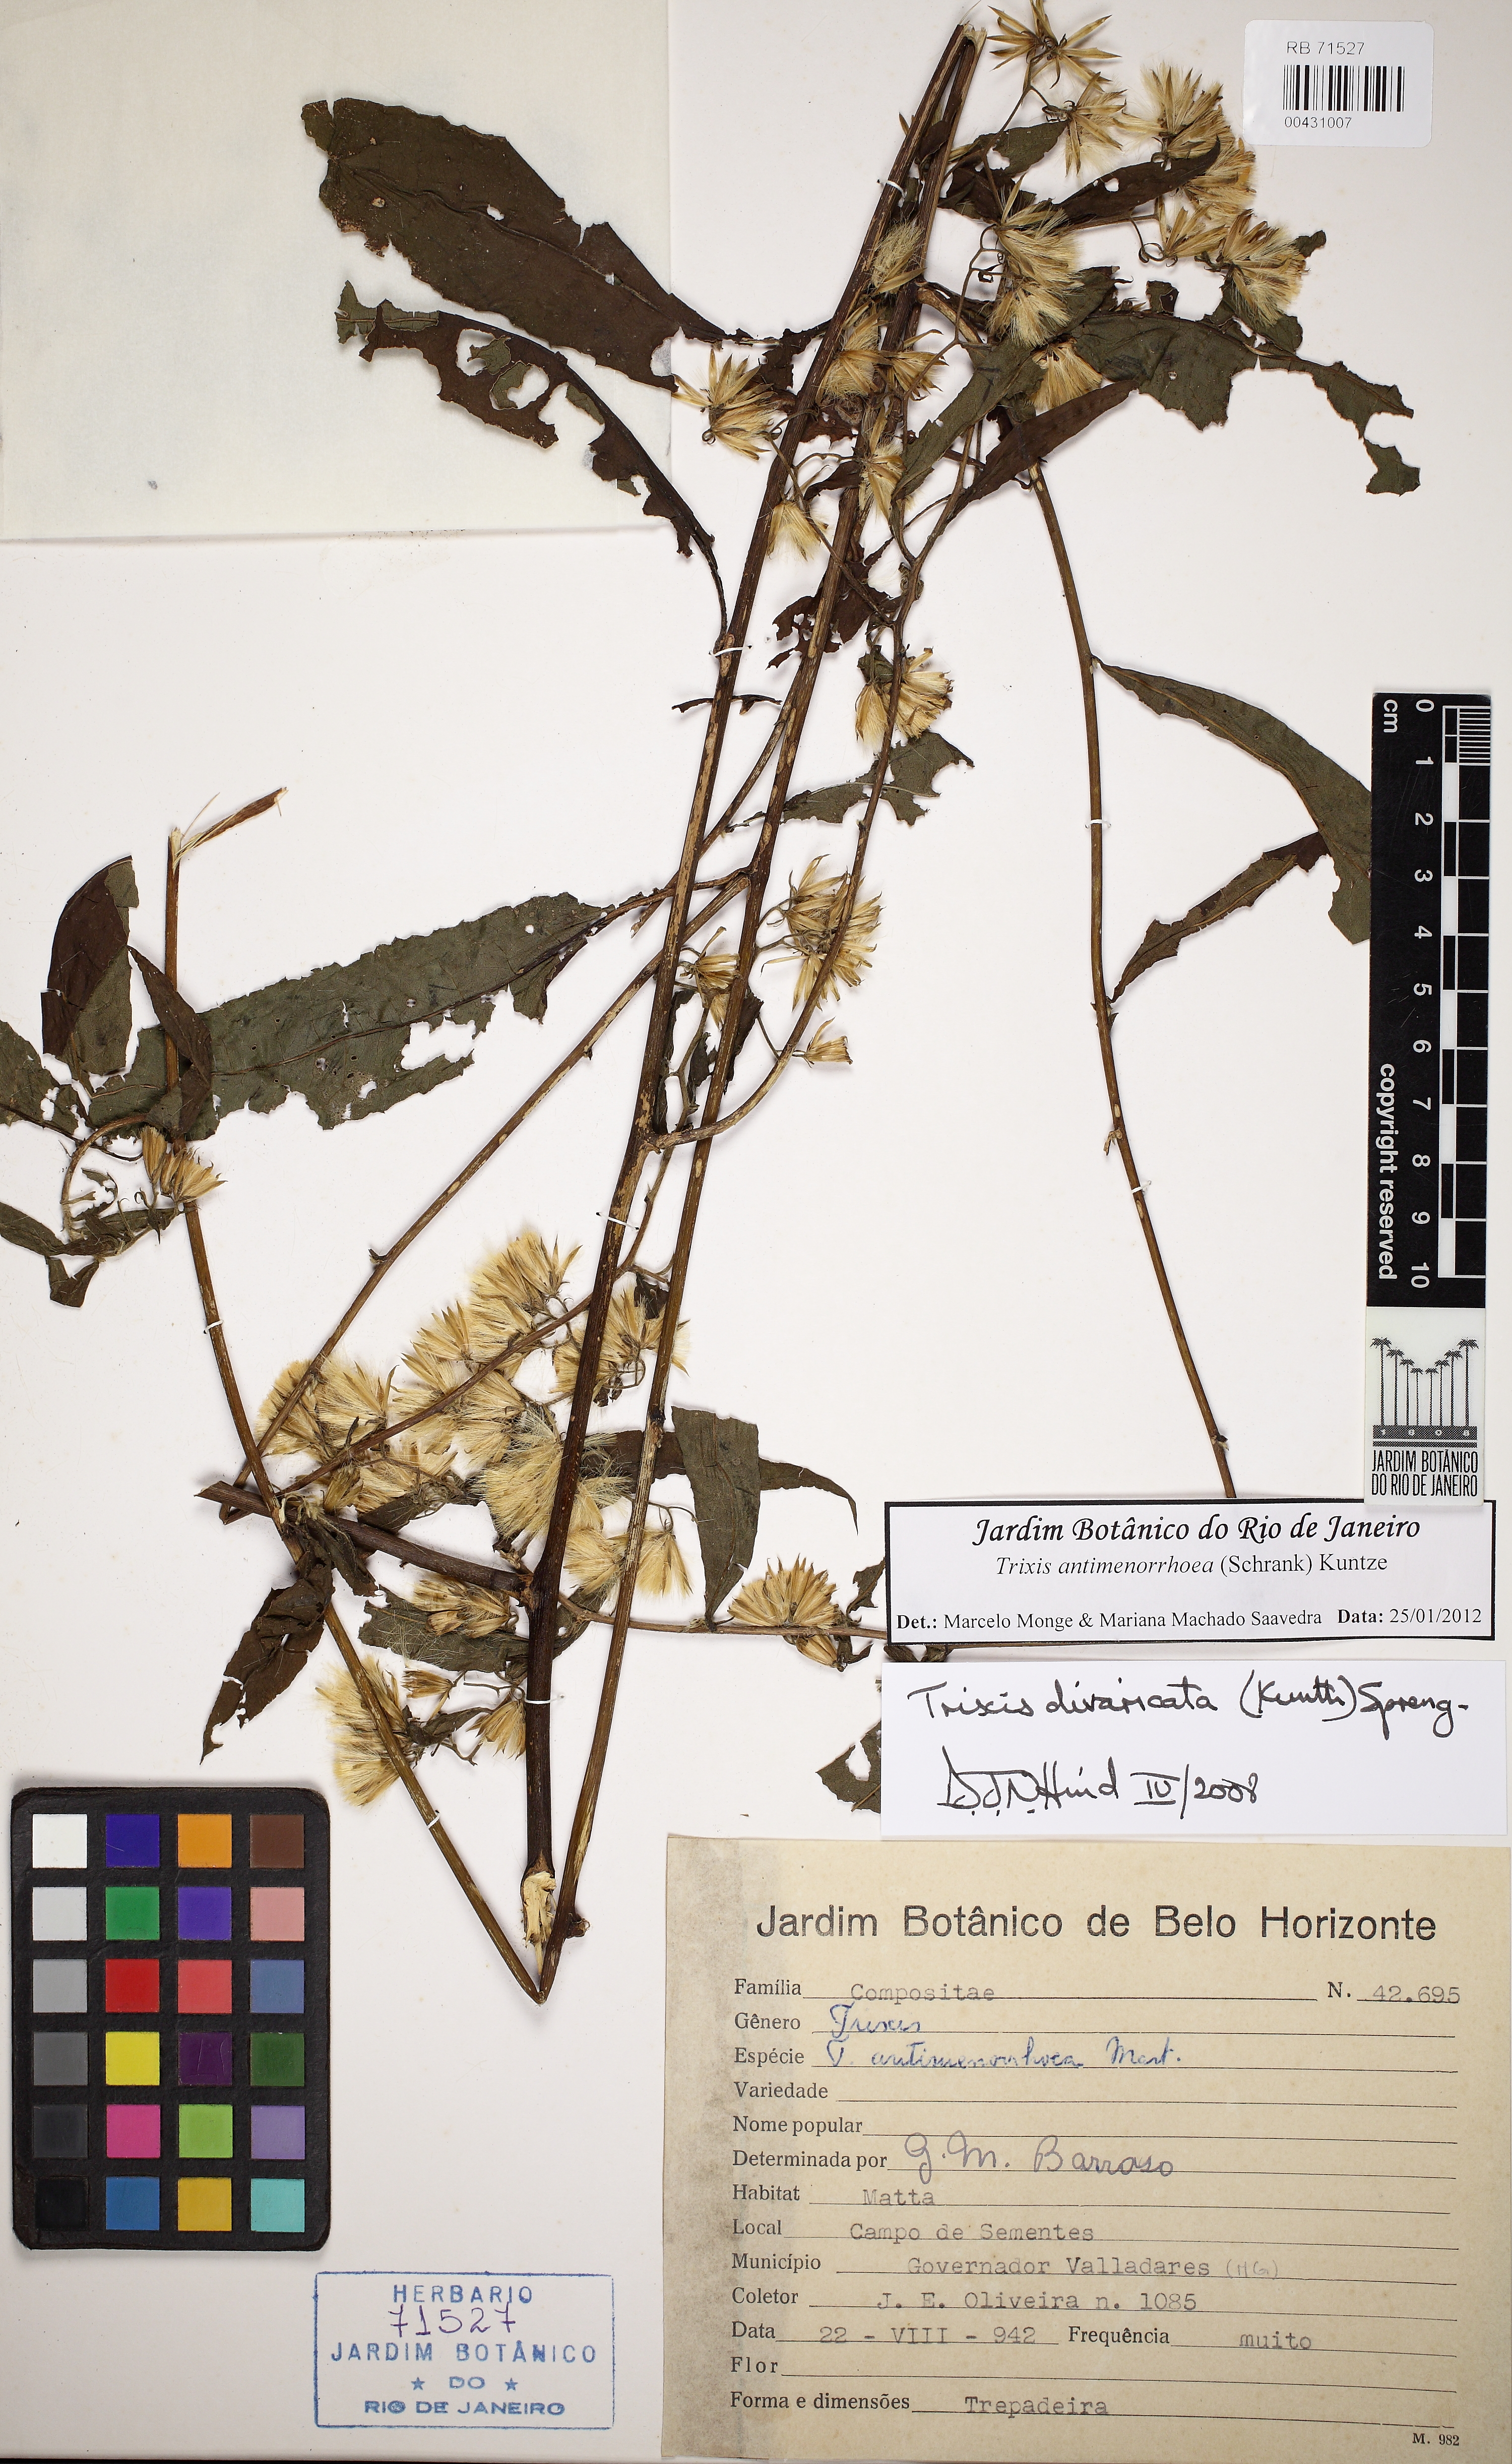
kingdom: Plantae
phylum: Tracheophyta
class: Magnoliopsida
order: Asterales
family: Asteraceae
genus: Trixis
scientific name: Trixis divaricata
